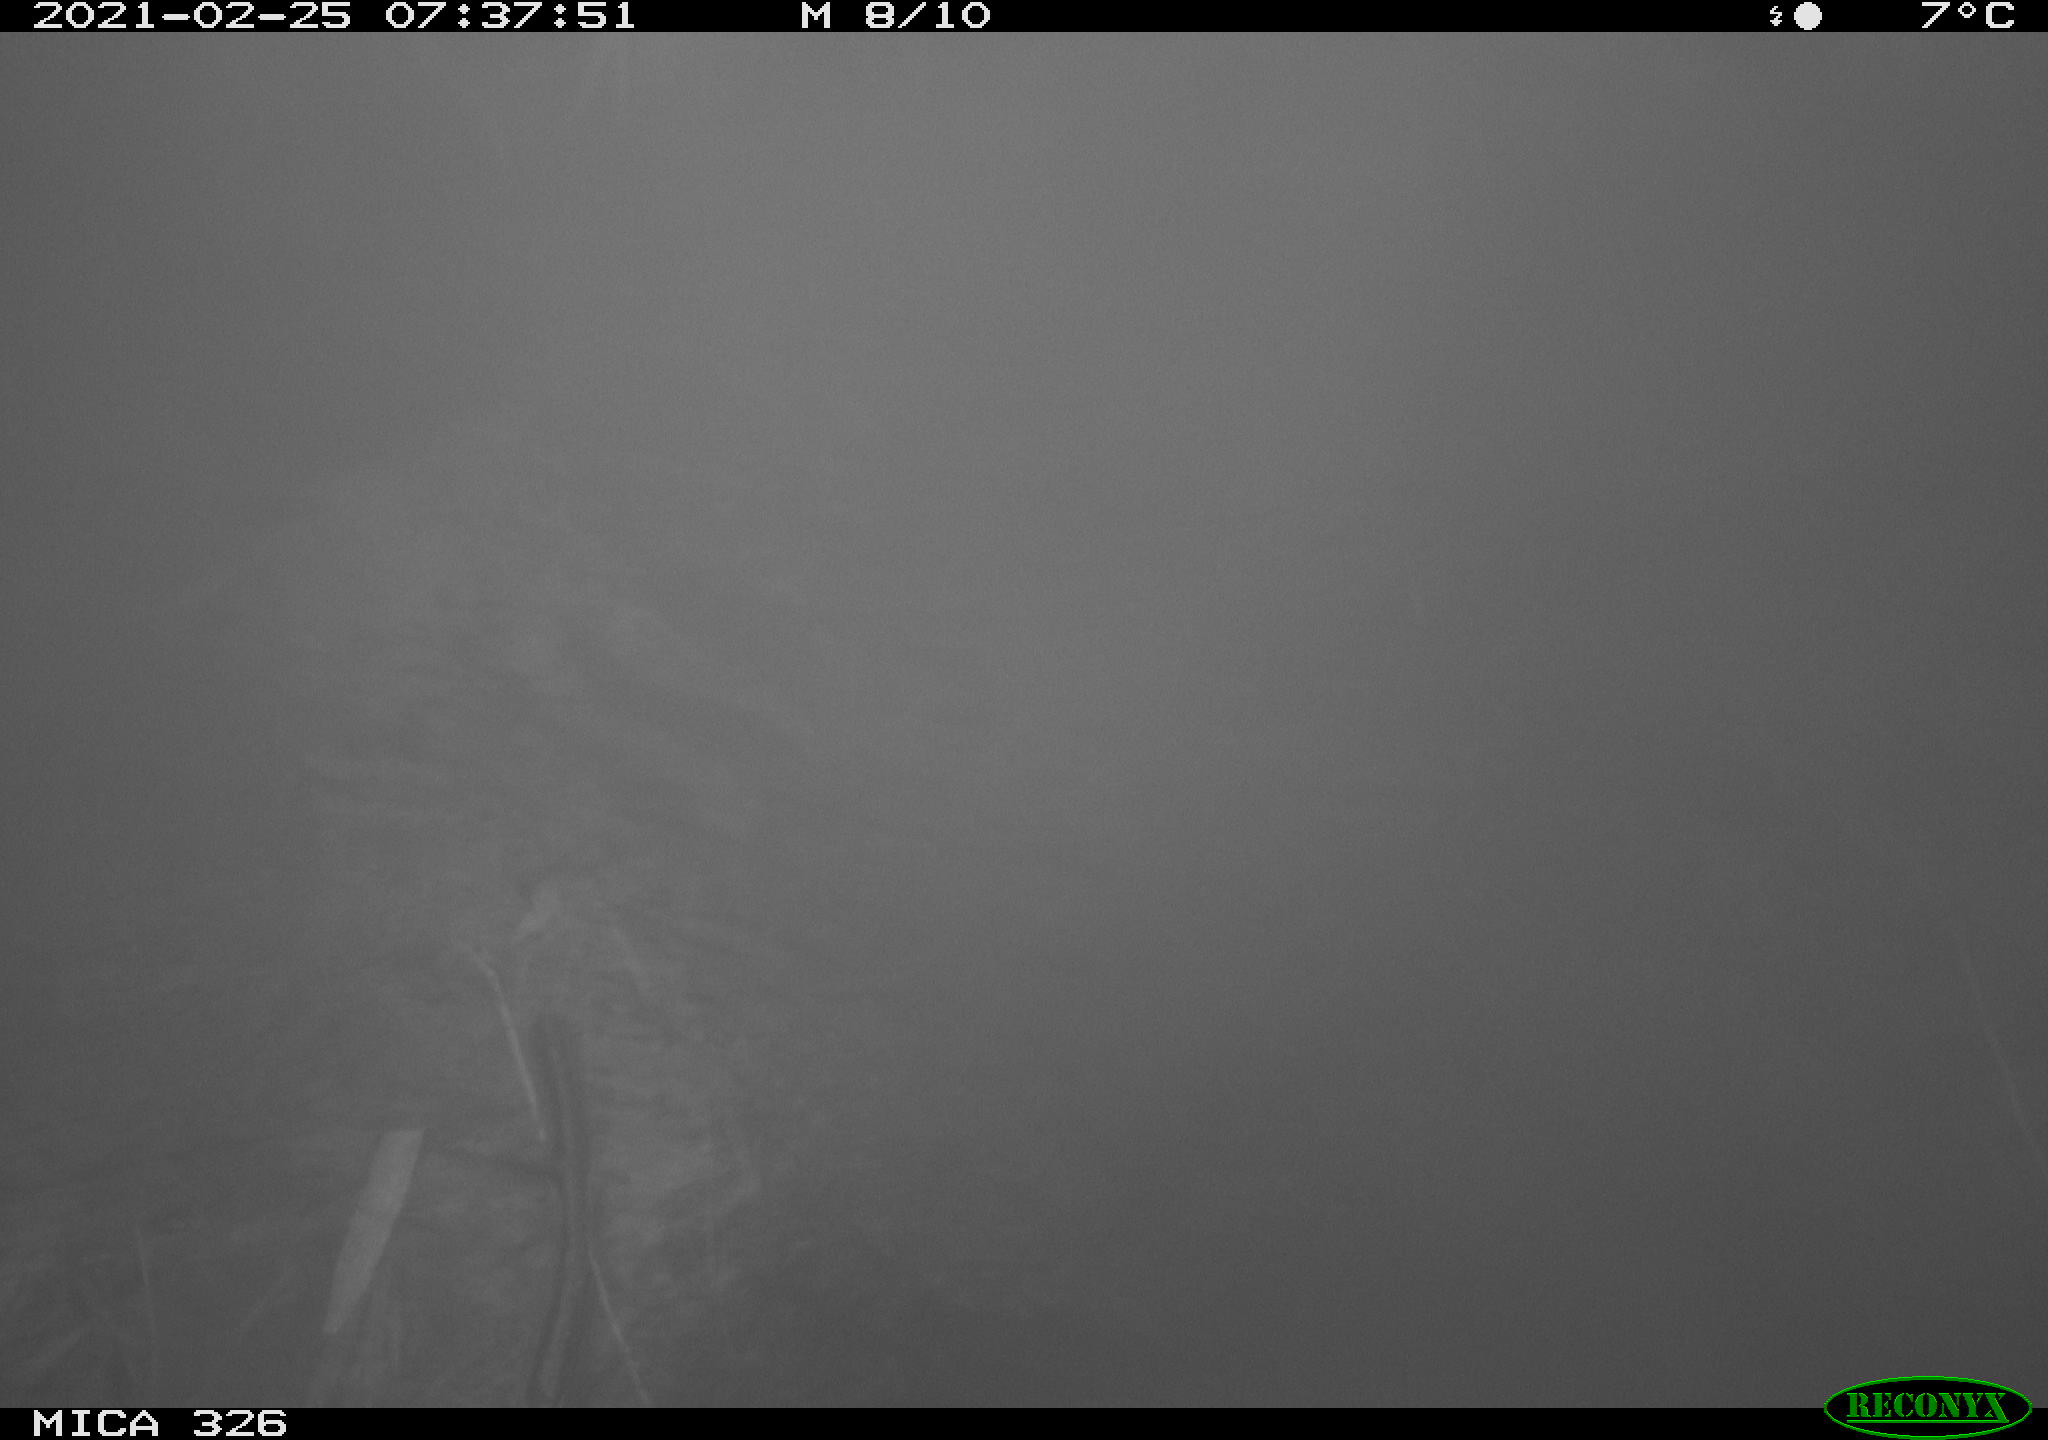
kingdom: Animalia
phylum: Chordata
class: Mammalia
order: Carnivora
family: Mustelidae
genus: Lutra
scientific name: Lutra lutra
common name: European otter
